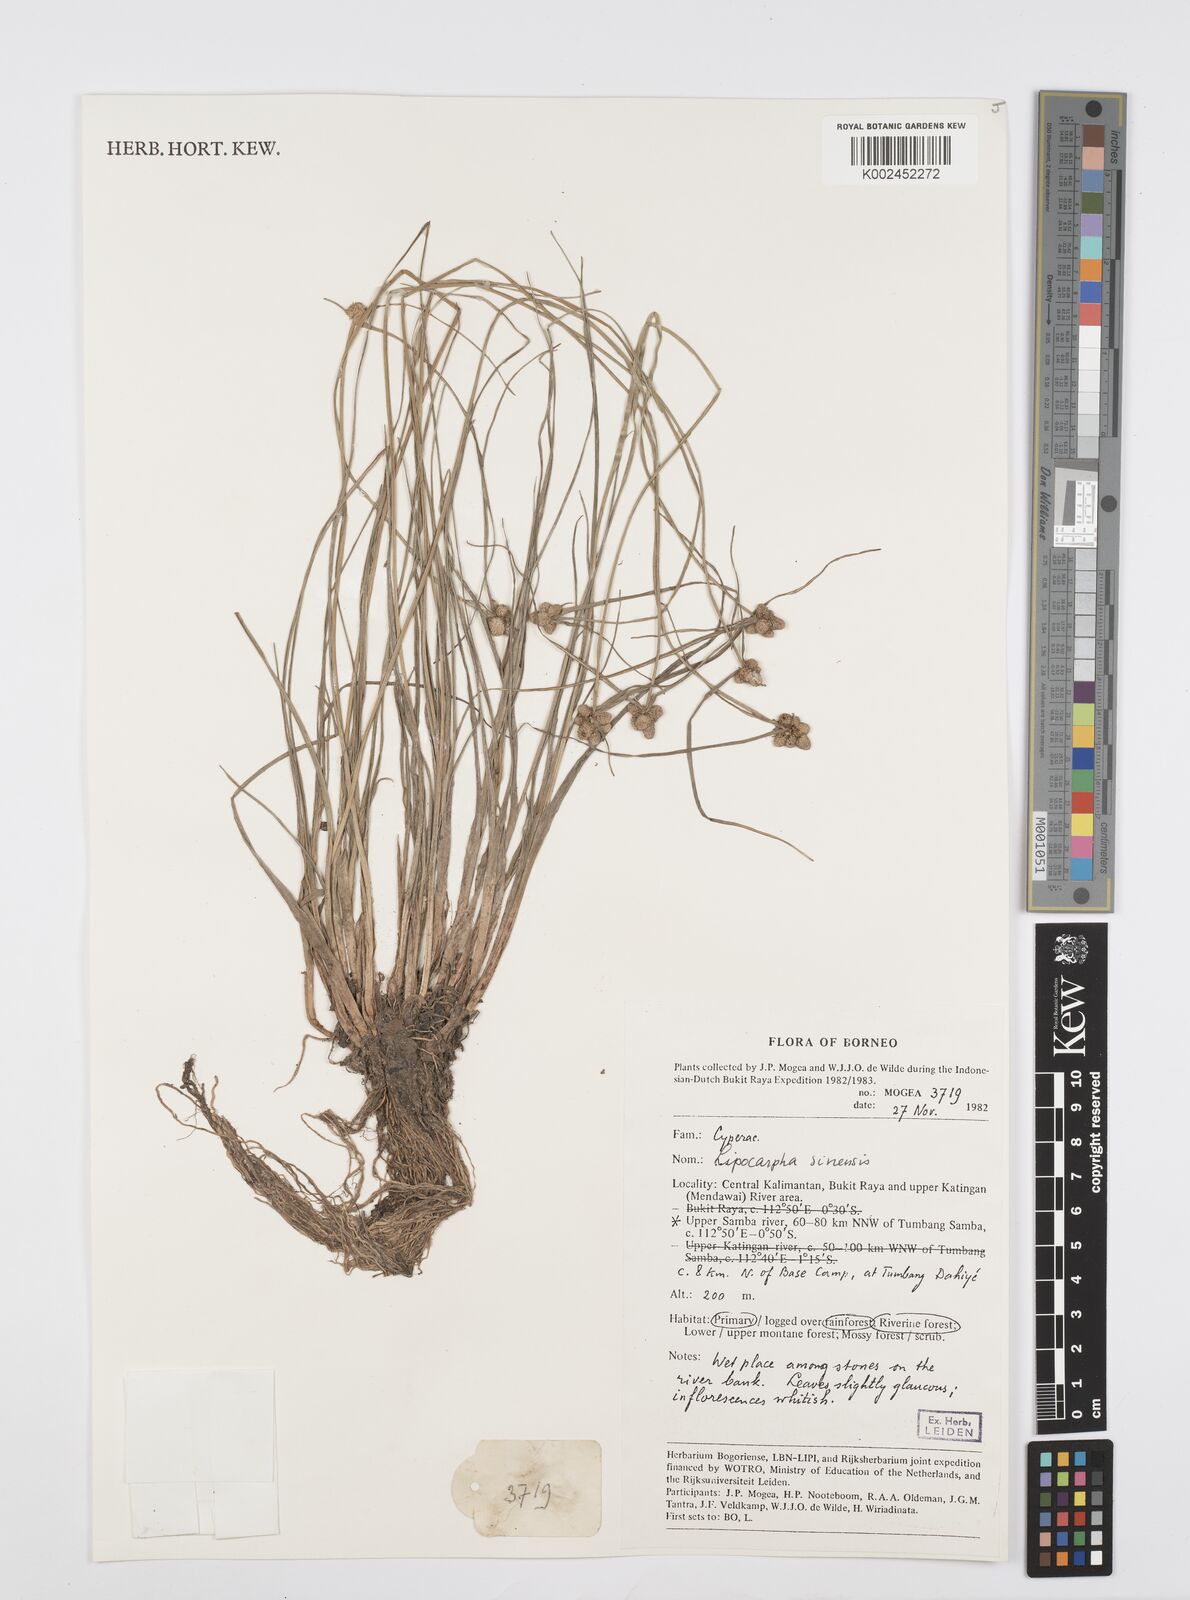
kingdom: Plantae
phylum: Tracheophyta
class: Liliopsida
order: Poales
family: Cyperaceae
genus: Cyperus
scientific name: Cyperus
